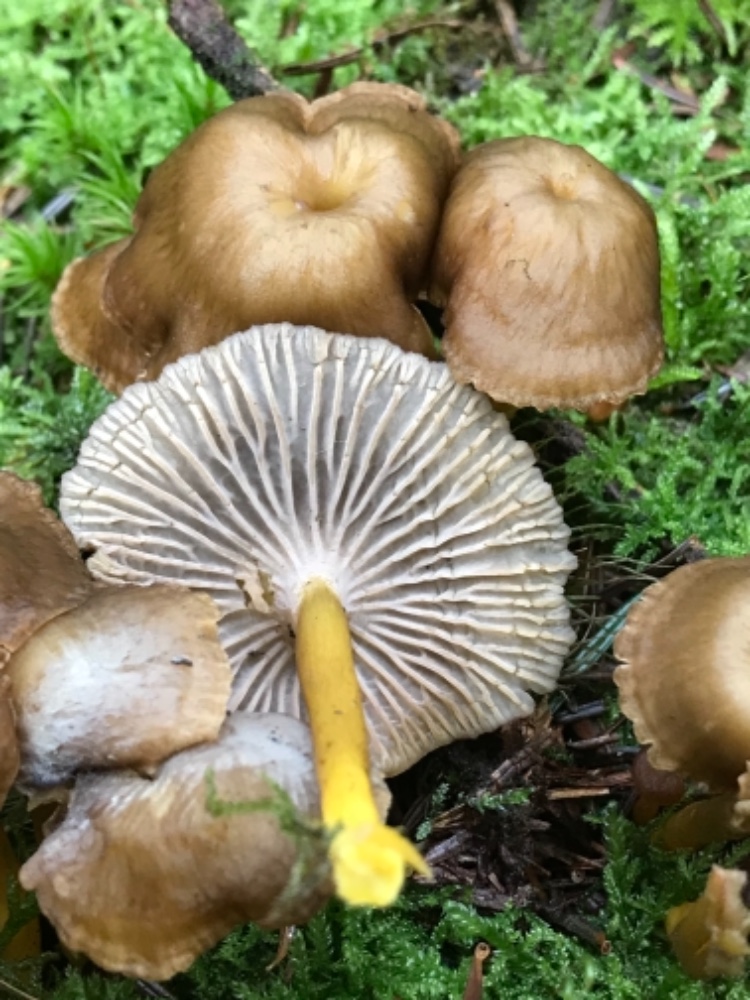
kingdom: Fungi
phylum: Basidiomycota
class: Agaricomycetes
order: Cantharellales
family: Hydnaceae
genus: Craterellus
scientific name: Craterellus tubaeformis
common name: tragt-kantarel
